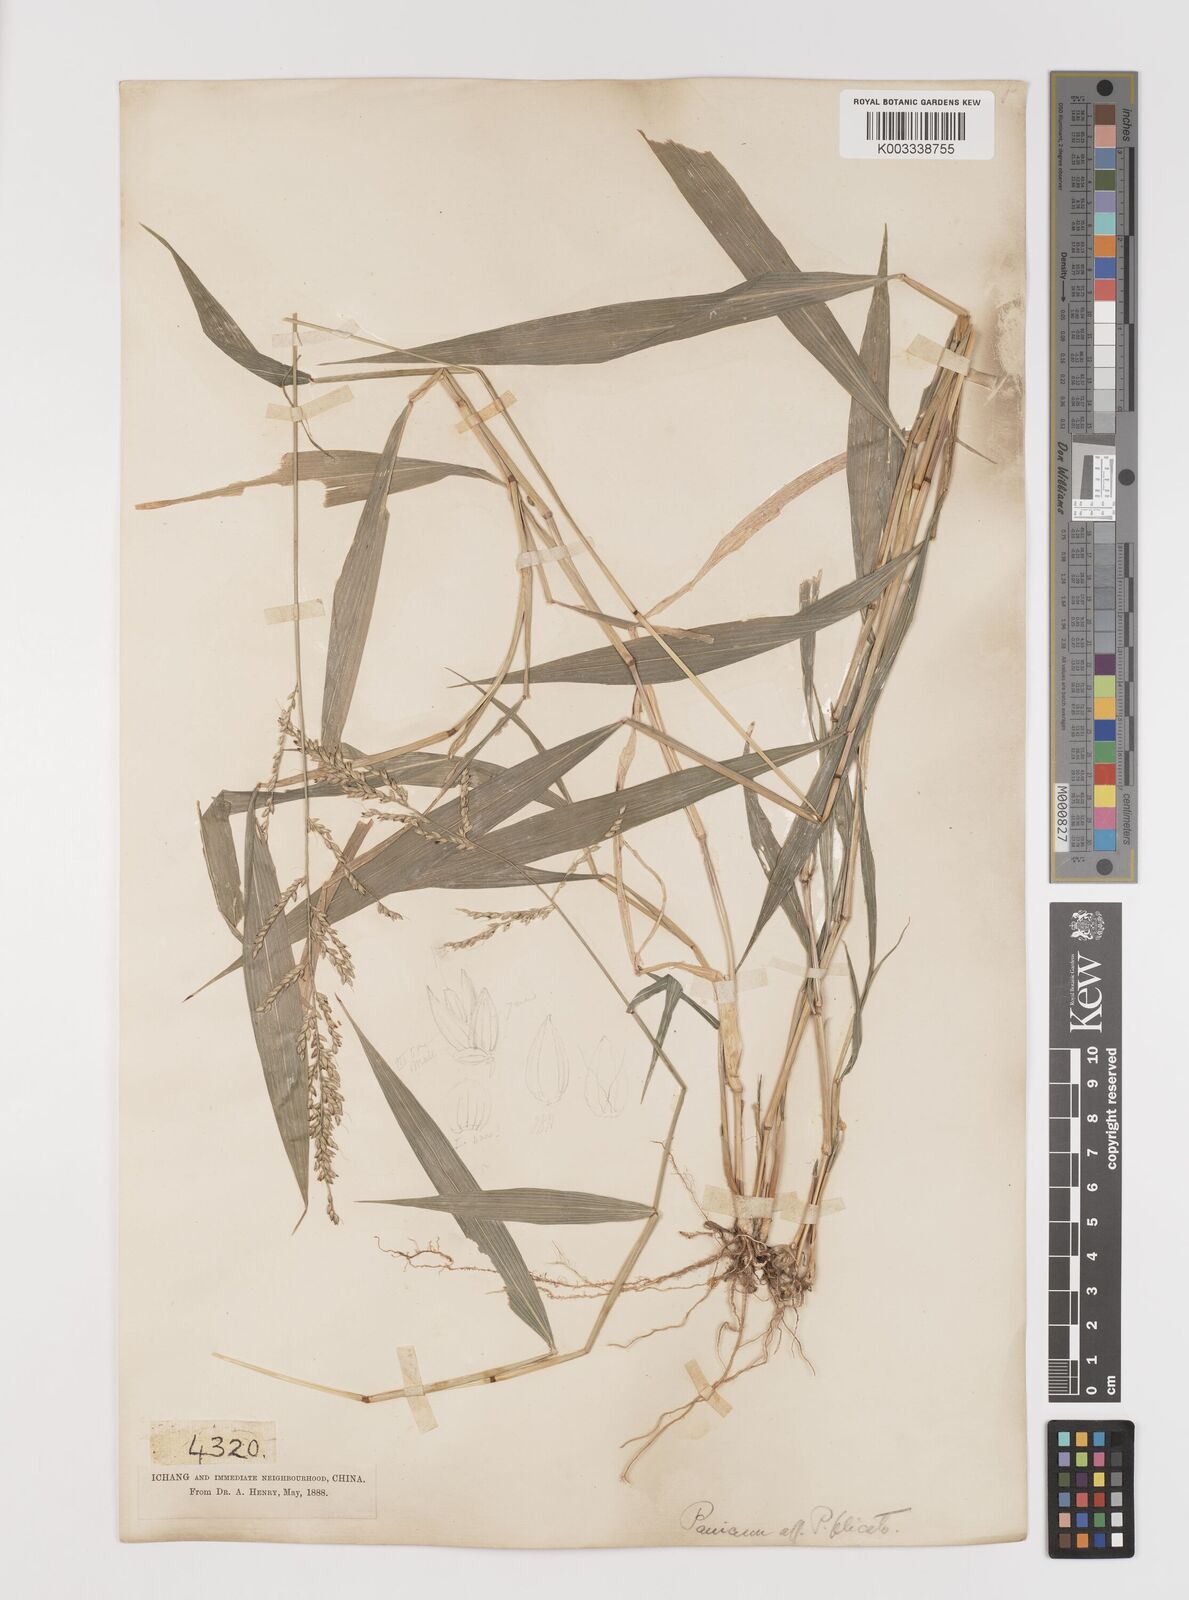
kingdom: Plantae
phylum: Tracheophyta
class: Liliopsida
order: Poales
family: Poaceae
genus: Setaria
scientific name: Setaria plicata
